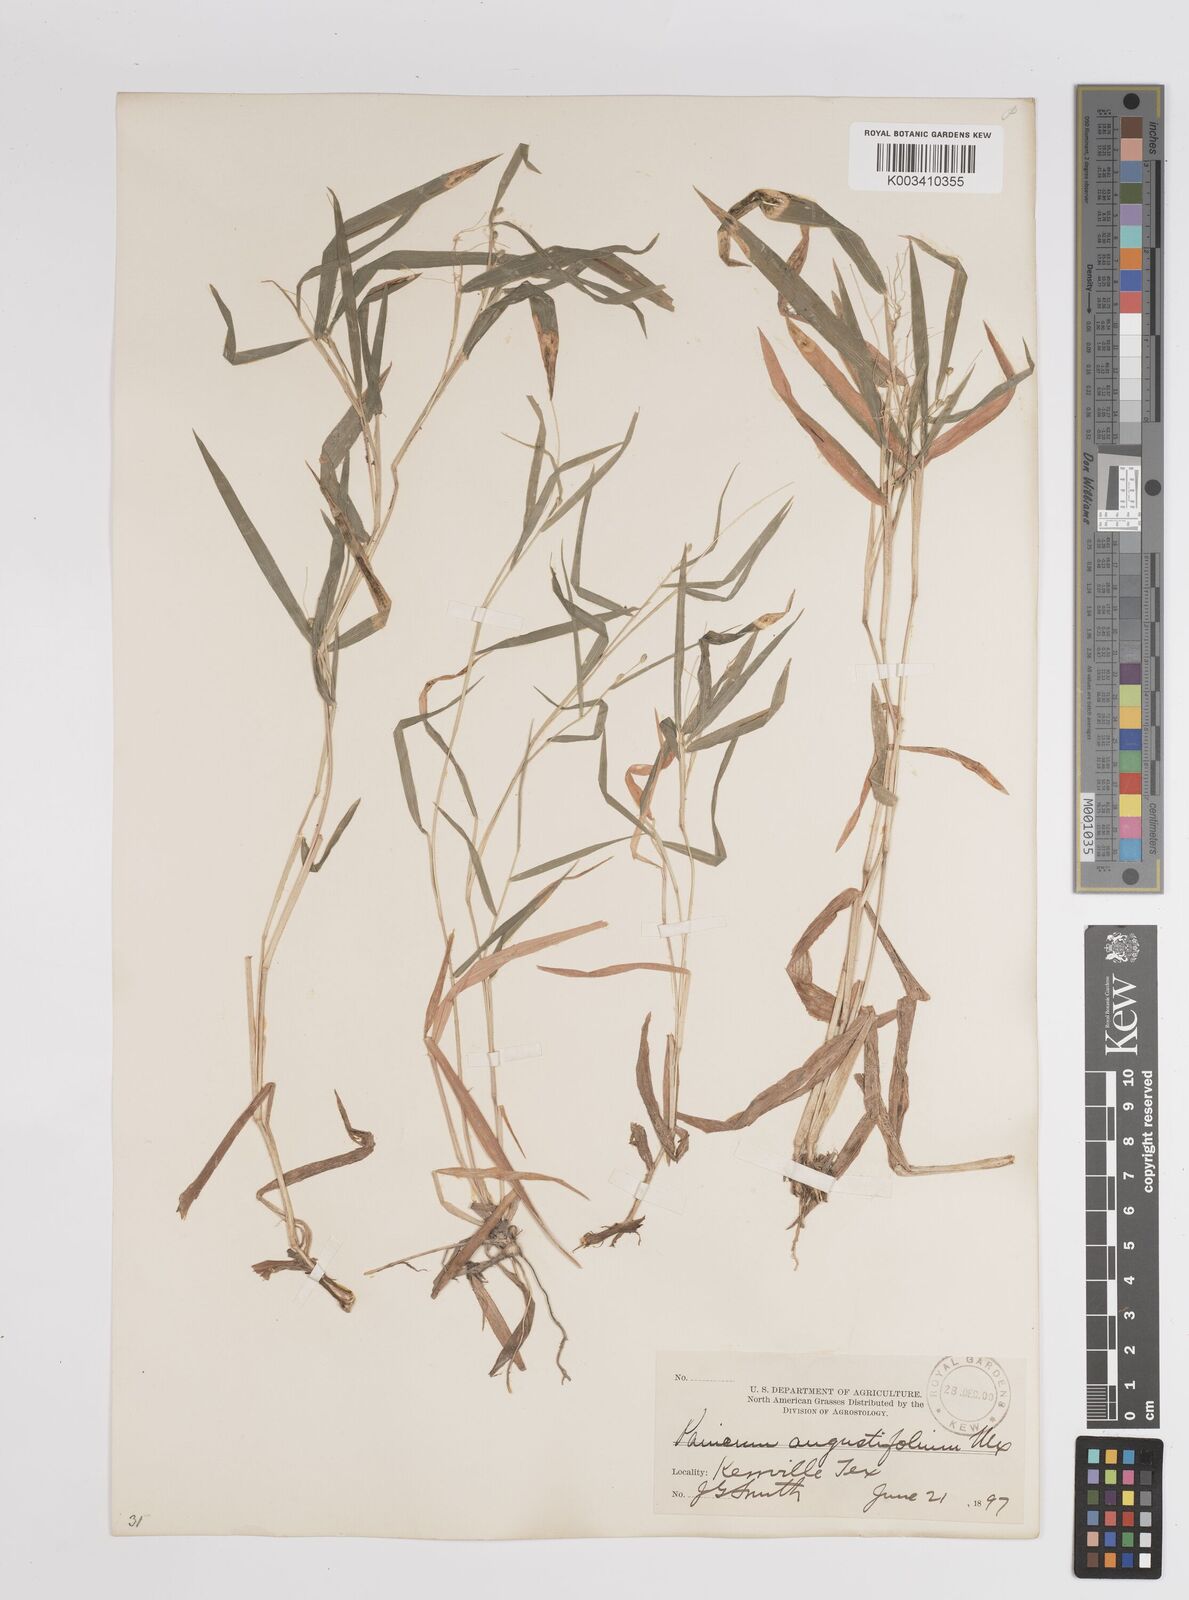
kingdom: Plantae
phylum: Tracheophyta
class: Liliopsida
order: Poales
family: Poaceae
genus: Dichanthelium
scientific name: Dichanthelium angustifolium
